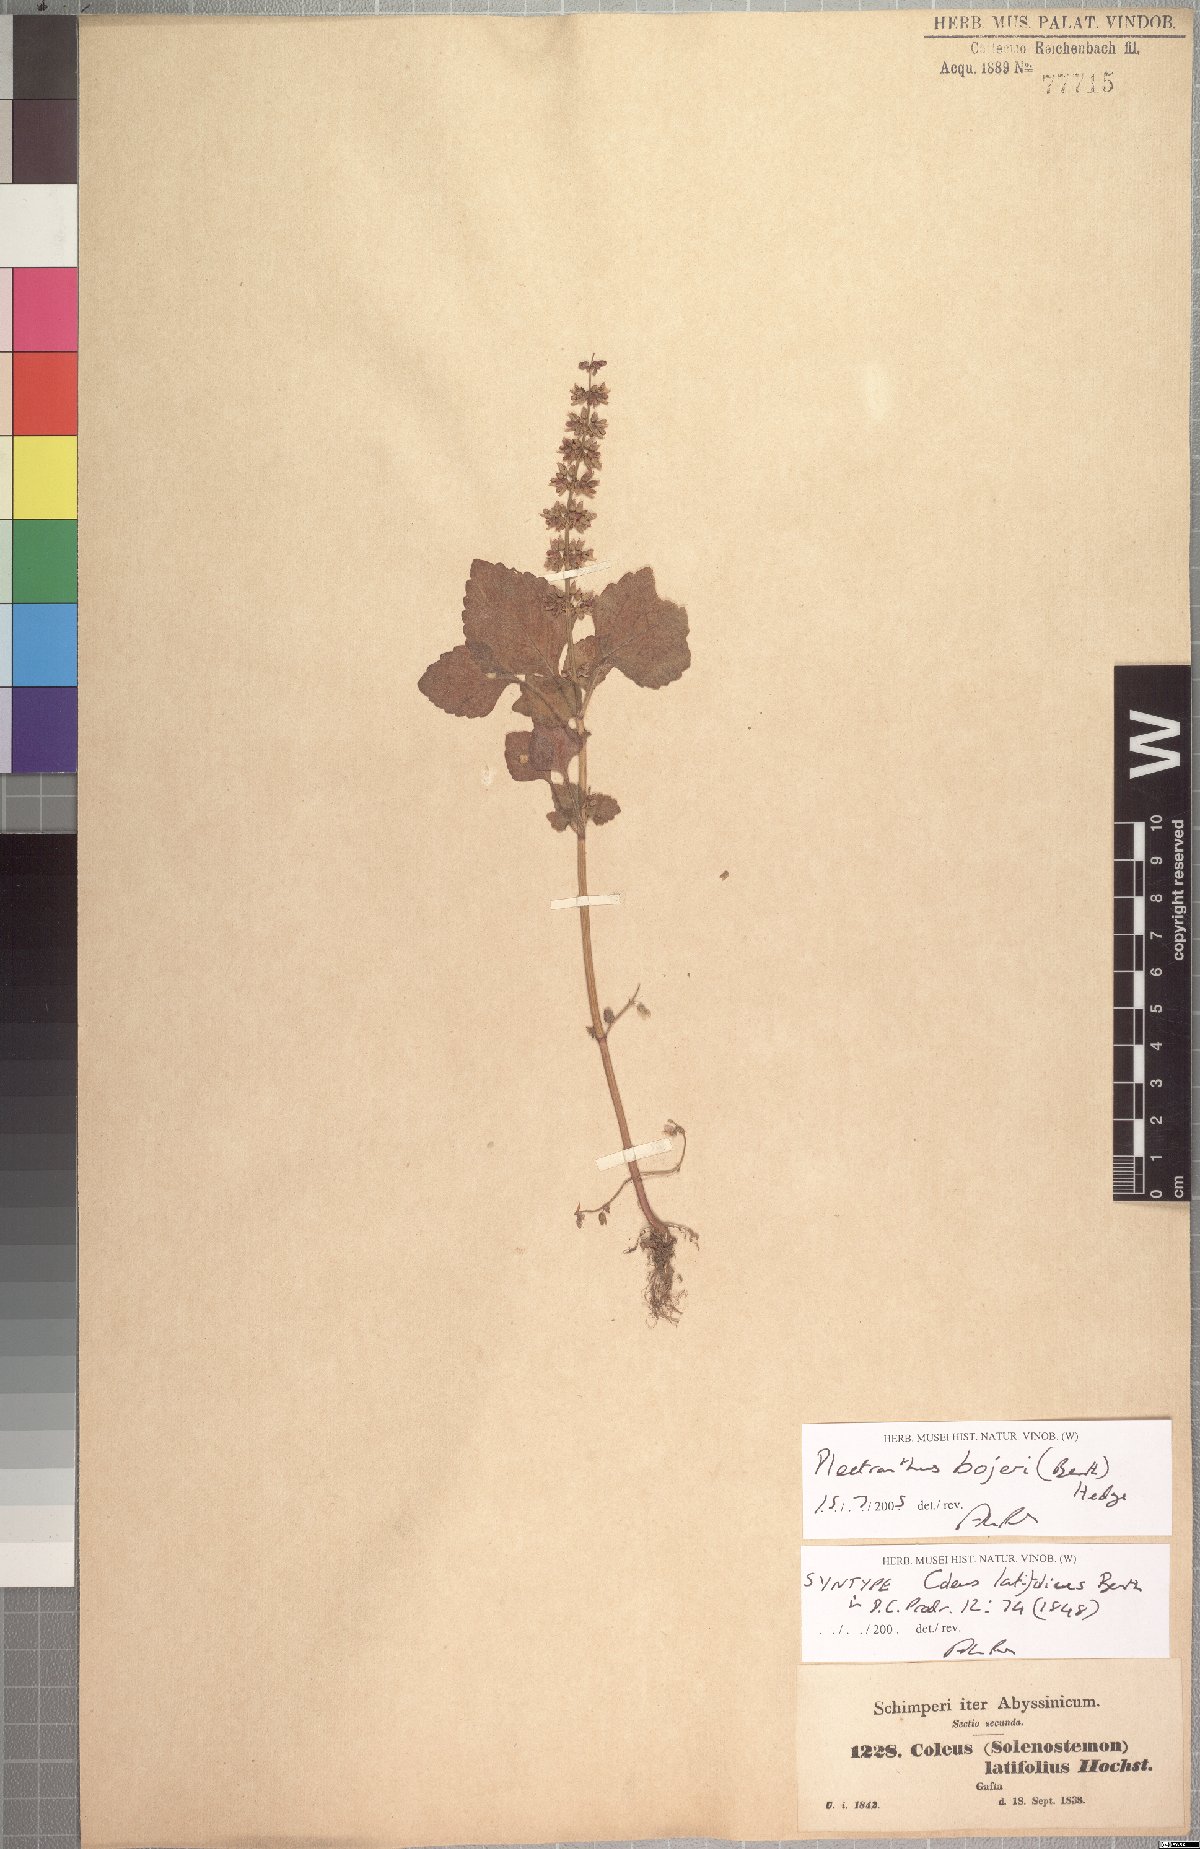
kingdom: Plantae
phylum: Tracheophyta
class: Magnoliopsida
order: Lamiales
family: Lamiaceae
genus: Coleus
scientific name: Coleus bojeri
